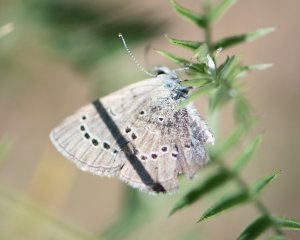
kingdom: Animalia
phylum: Arthropoda
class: Insecta
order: Lepidoptera
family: Lycaenidae
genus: Glaucopsyche
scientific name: Glaucopsyche lygdamus
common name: Silvery Blue
